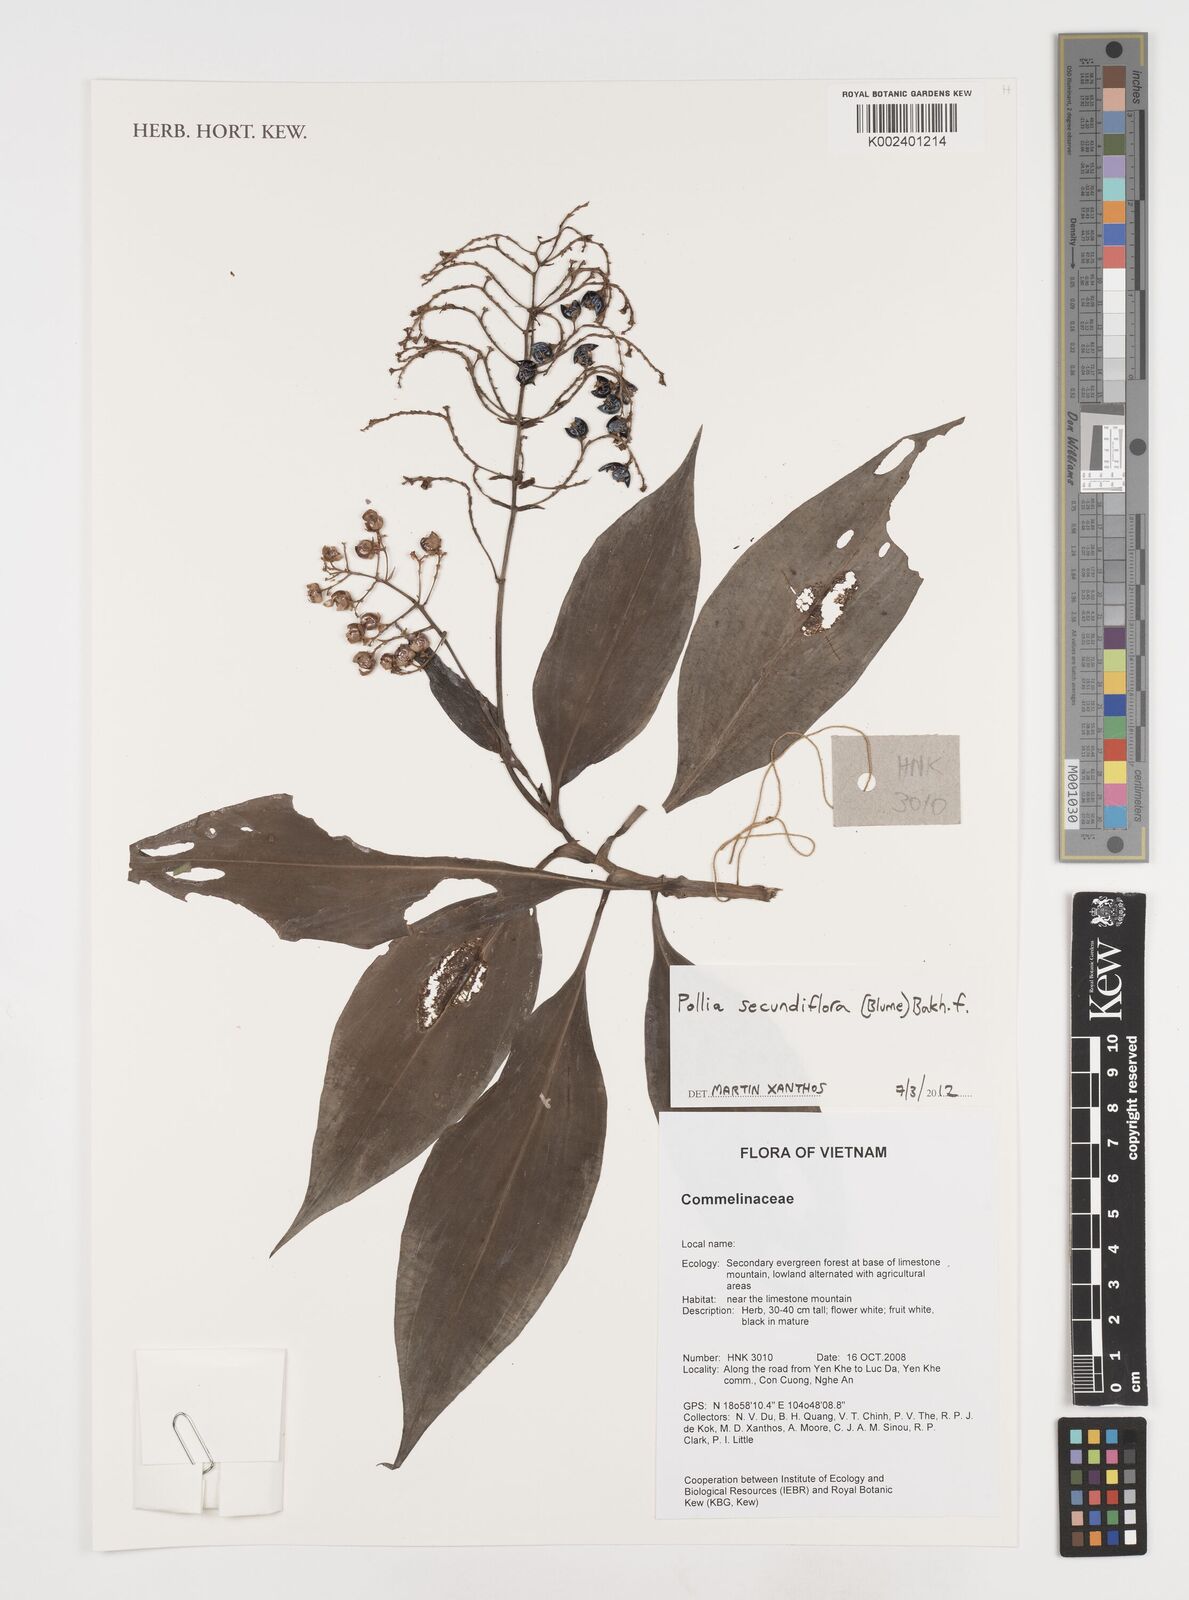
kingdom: Plantae
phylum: Tracheophyta
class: Liliopsida
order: Commelinales
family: Commelinaceae
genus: Pollia
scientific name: Pollia secundiflora
